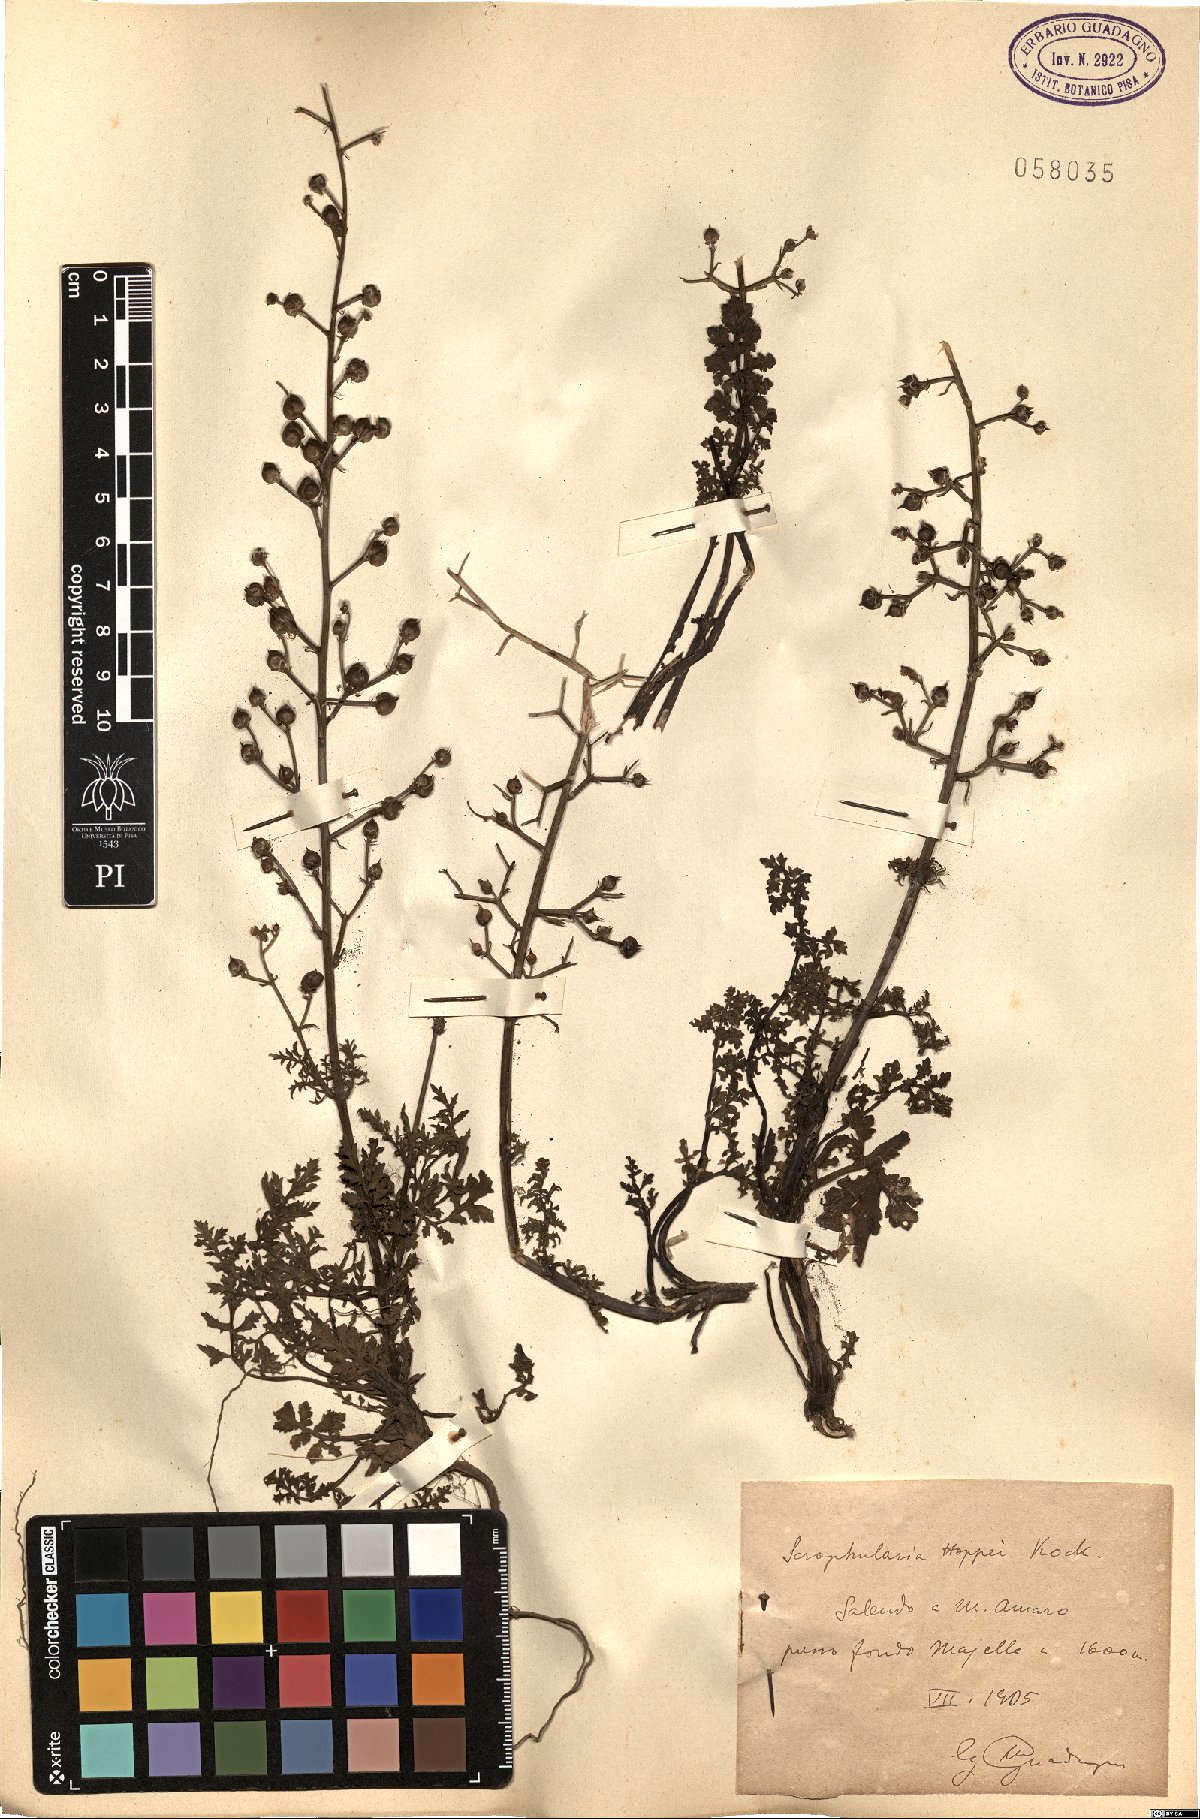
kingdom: Plantae
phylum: Tracheophyta
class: Magnoliopsida
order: Lamiales
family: Scrophulariaceae
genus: Scrophularia
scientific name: Scrophularia canina
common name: French figwort
